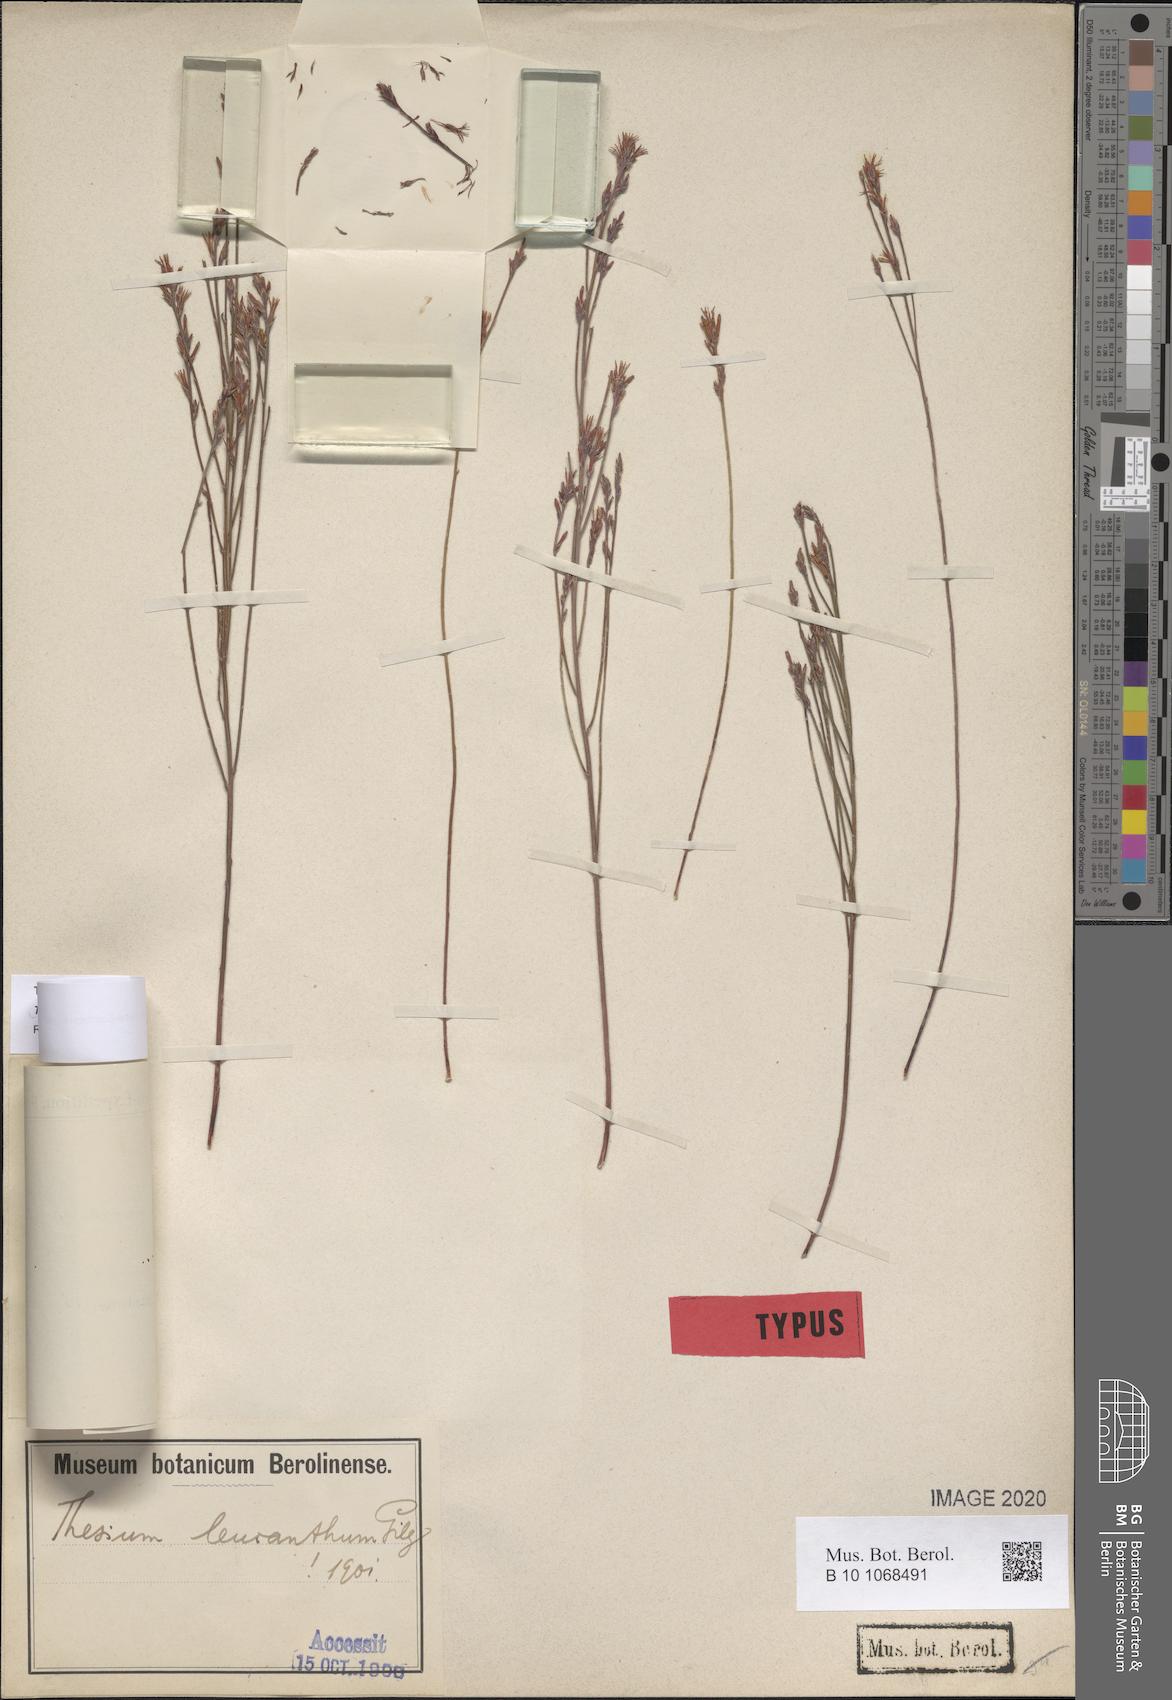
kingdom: Plantae
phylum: Tracheophyta
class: Magnoliopsida
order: Santalales
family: Thesiaceae
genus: Thesium
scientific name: Thesium leucanthum
